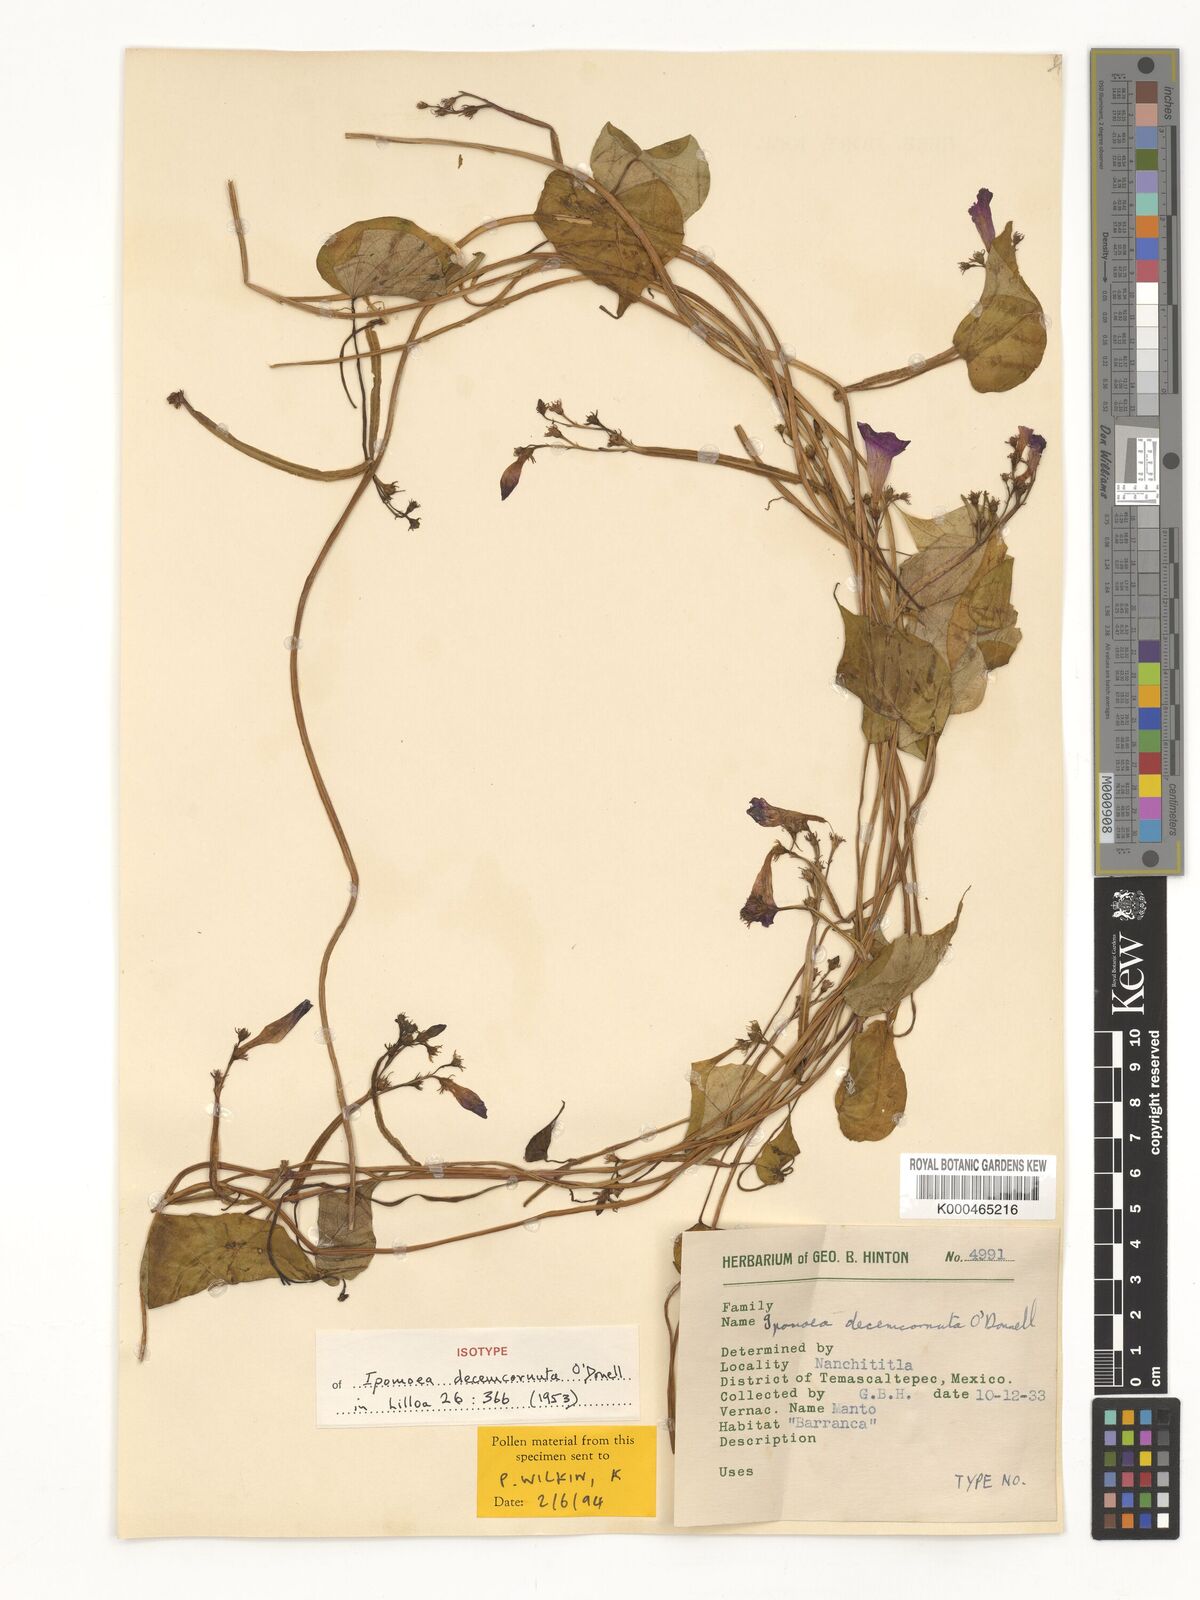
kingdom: Plantae
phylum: Tracheophyta
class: Magnoliopsida
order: Solanales
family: Convolvulaceae
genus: Ipomoea
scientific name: Ipomoea decemcornuta
